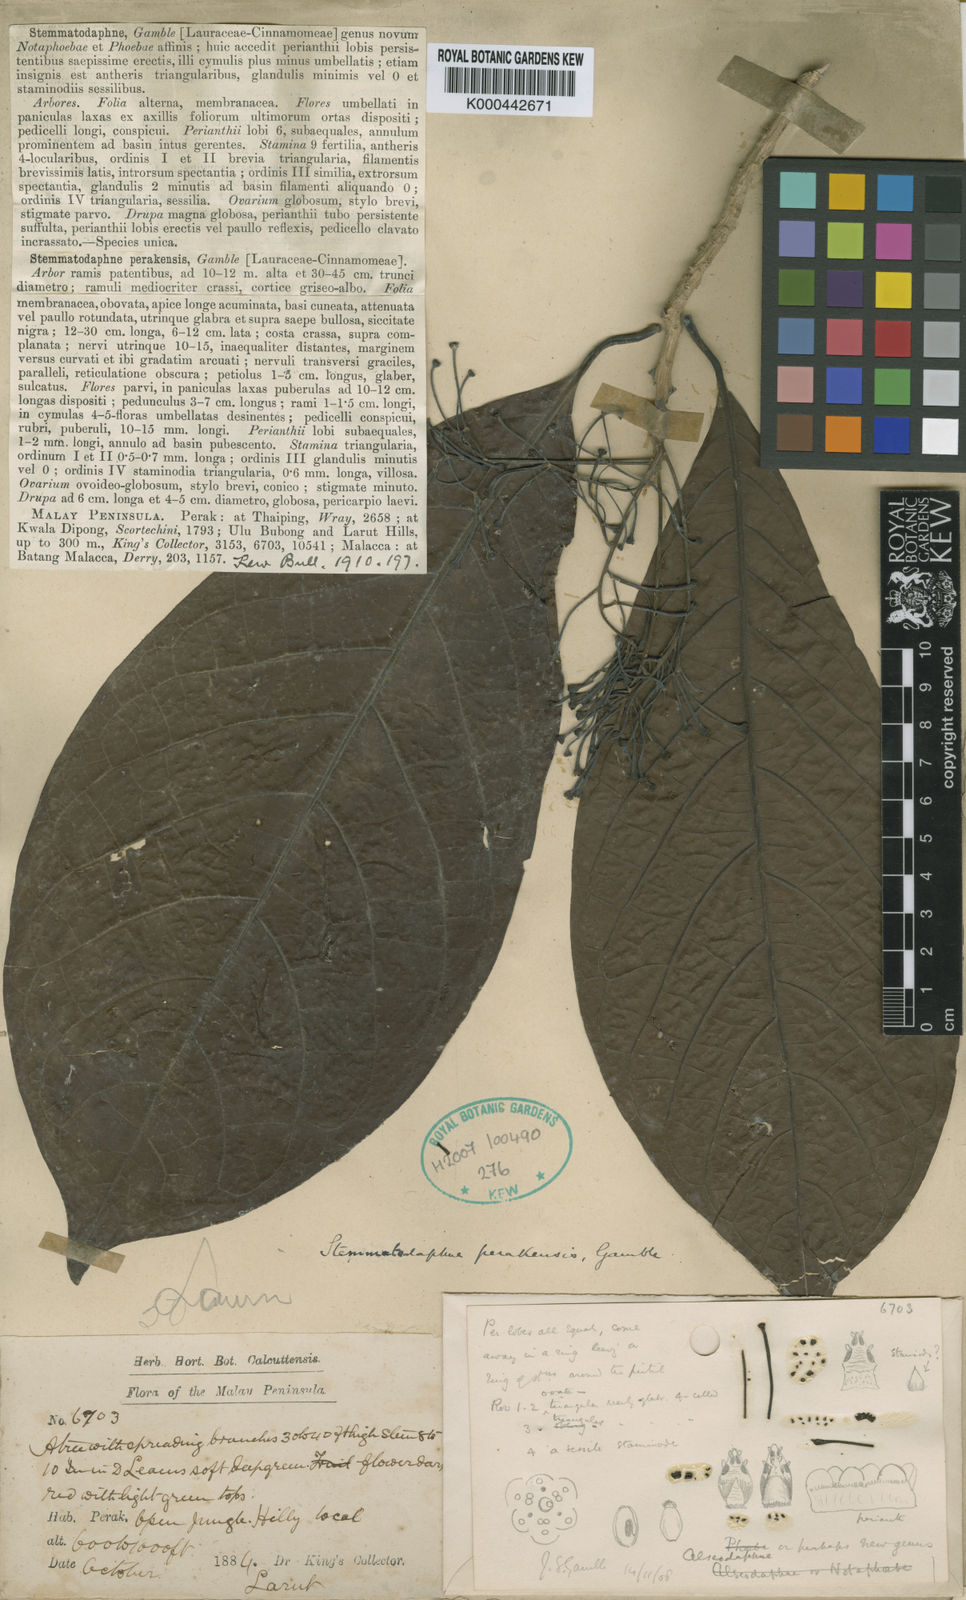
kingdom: Plantae
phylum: Tracheophyta
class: Magnoliopsida
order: Laurales
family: Lauraceae
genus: Alseodaphne
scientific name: Alseodaphne perakensis
